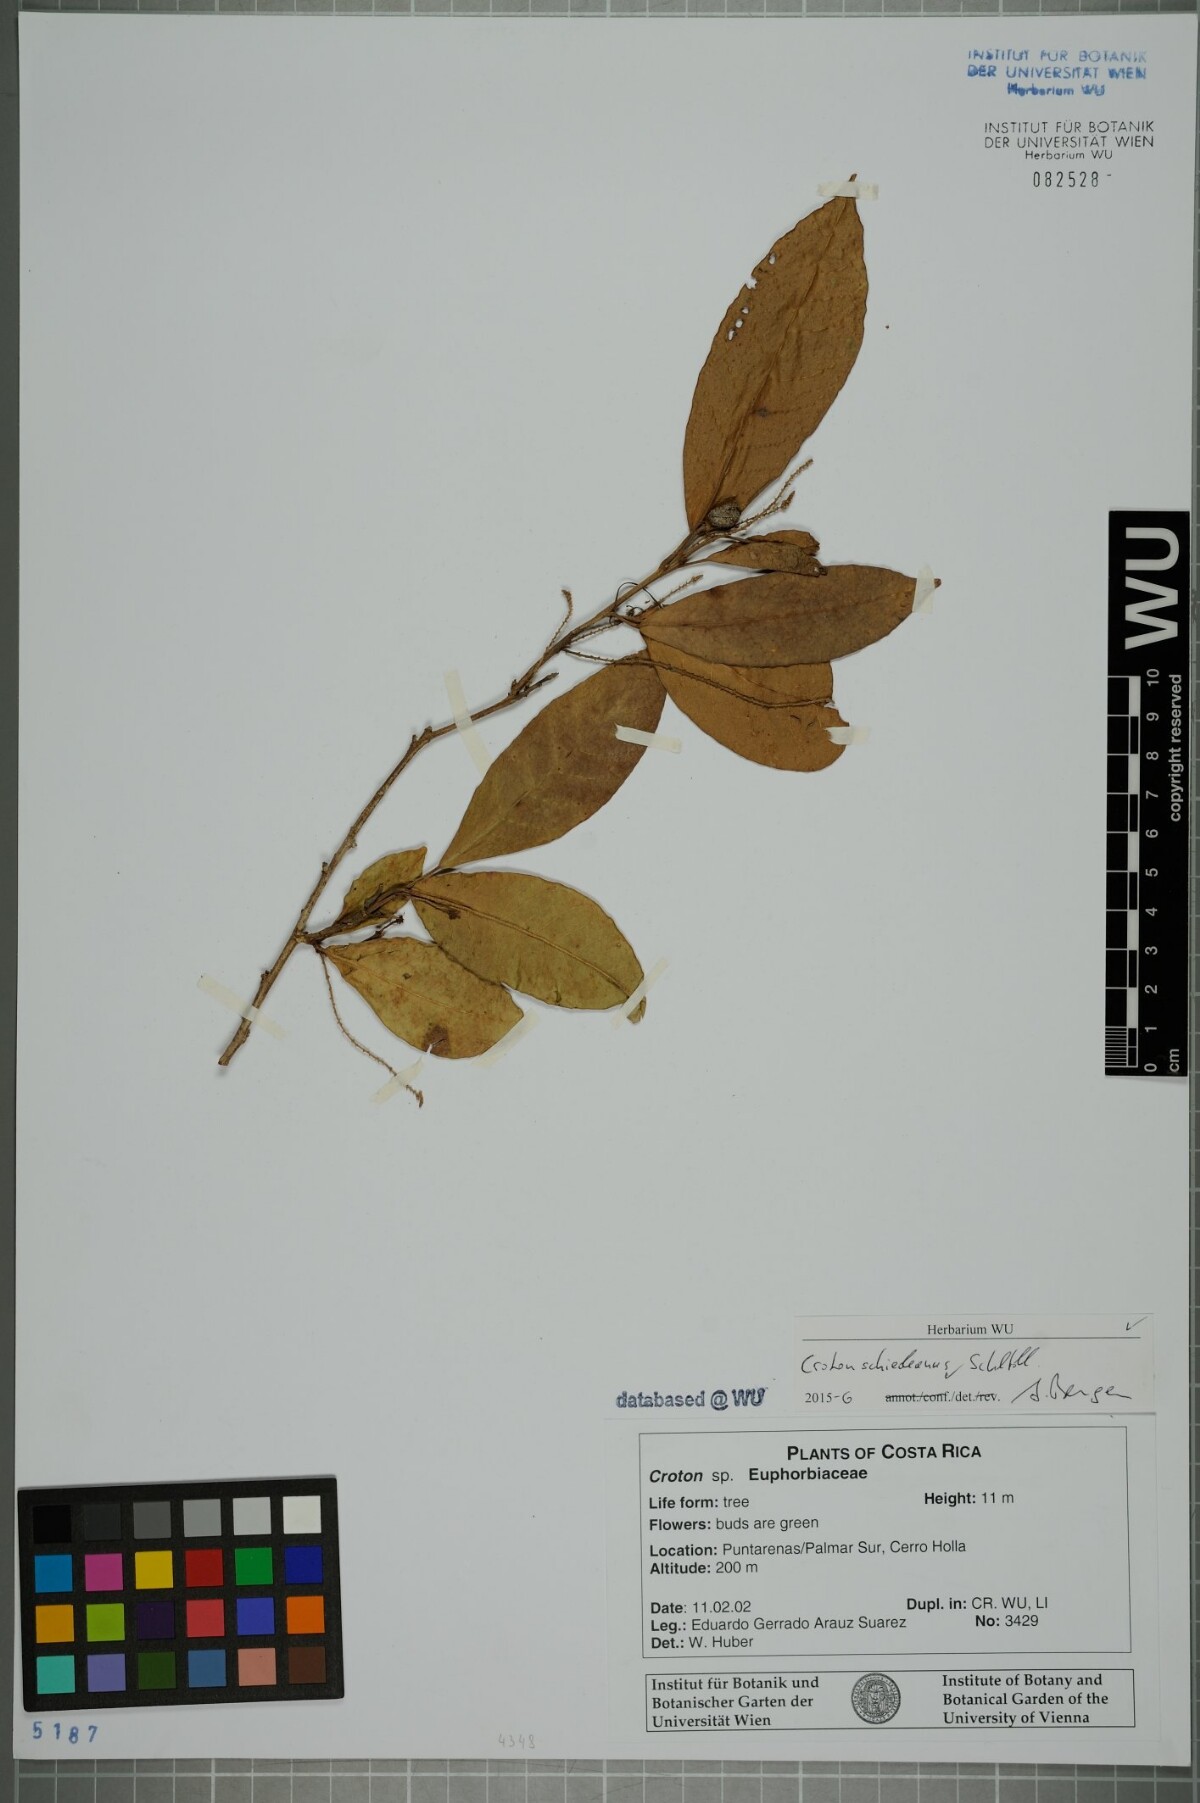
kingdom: Plantae
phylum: Tracheophyta
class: Magnoliopsida
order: Malpighiales
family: Euphorbiaceae
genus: Croton
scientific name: Croton schiedeanus
